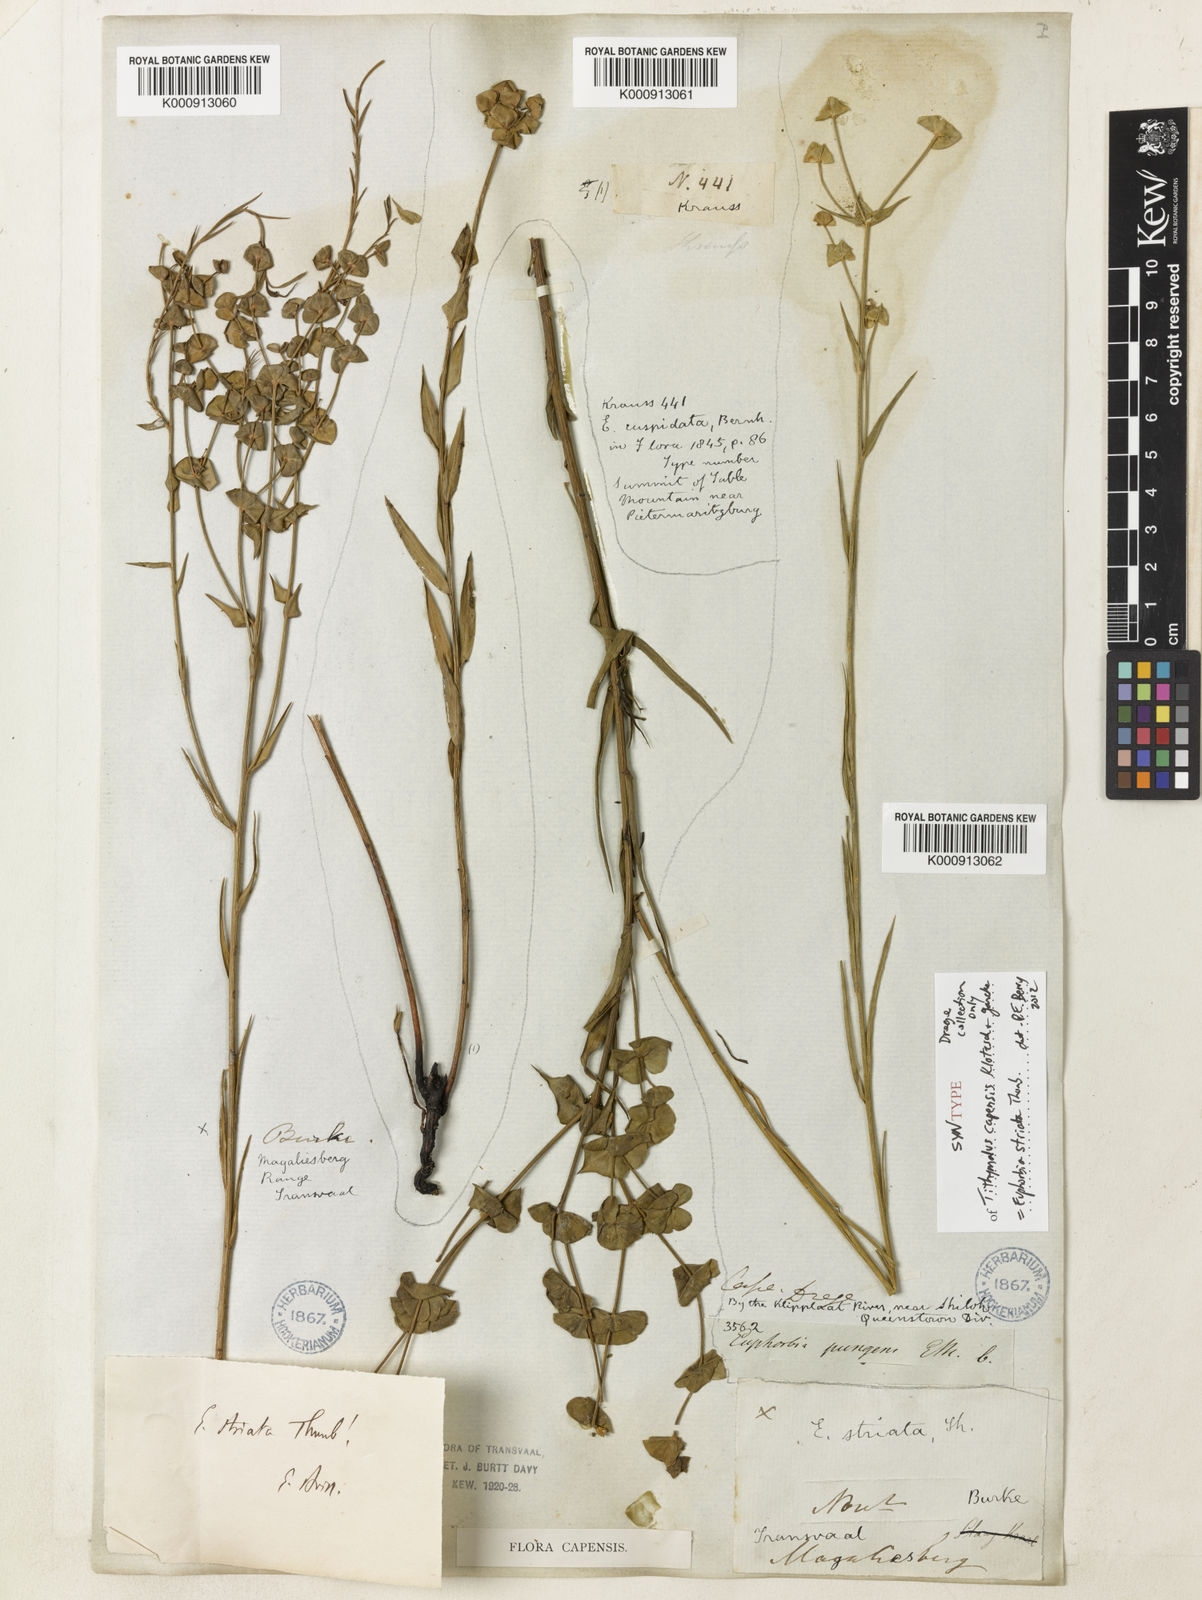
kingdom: Plantae
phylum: Tracheophyta
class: Magnoliopsida
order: Malpighiales
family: Euphorbiaceae
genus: Euphorbia
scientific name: Euphorbia striata
